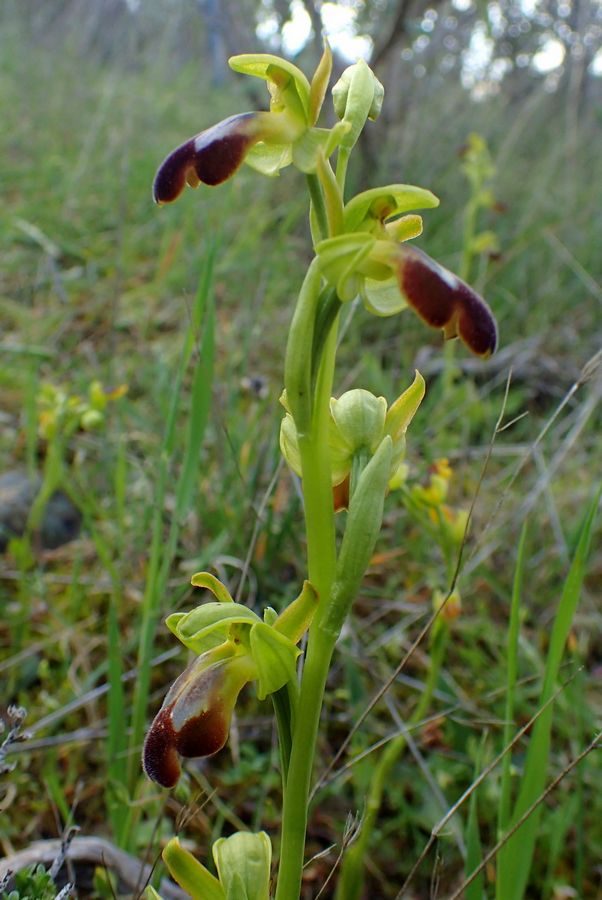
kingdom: Plantae
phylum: Tracheophyta
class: Liliopsida
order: Asparagales
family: Orchidaceae
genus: Ophrys
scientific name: Ophrys fusca
